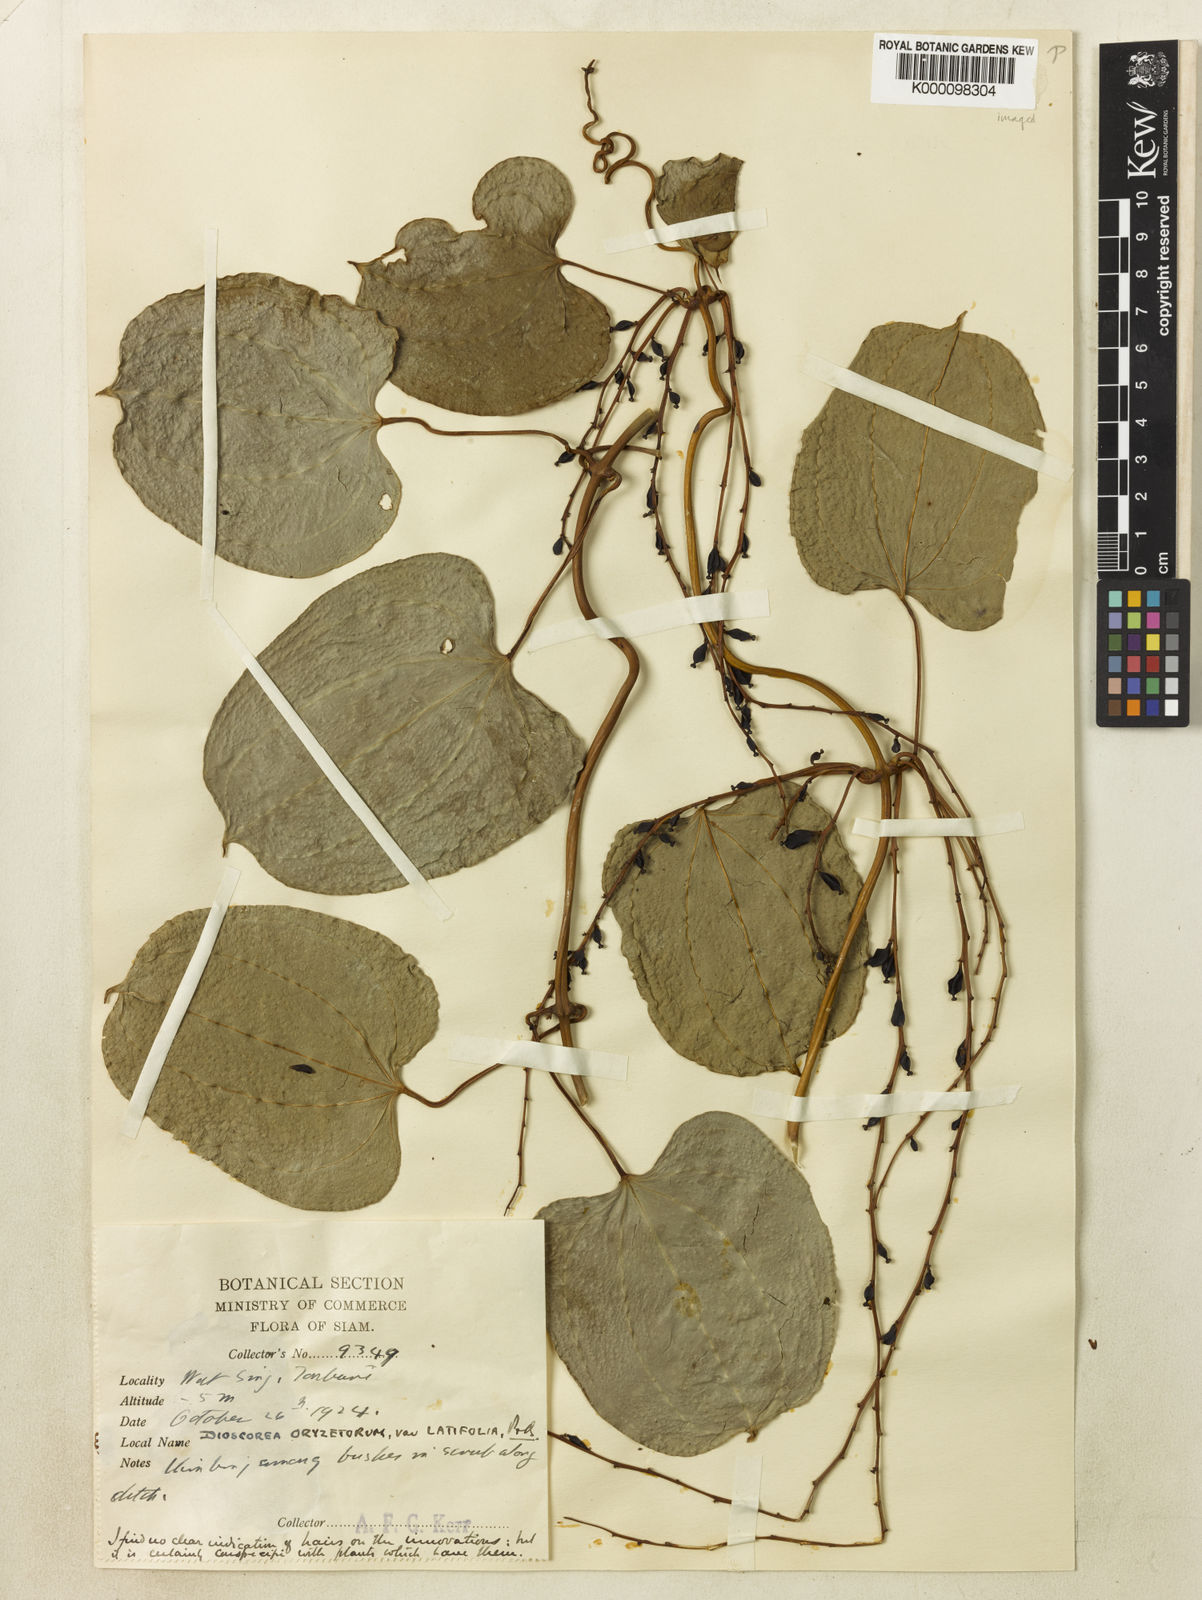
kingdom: Plantae
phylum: Tracheophyta
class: Liliopsida
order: Dioscoreales
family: Dioscoreaceae
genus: Dioscorea
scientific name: Dioscorea oryzetorum
